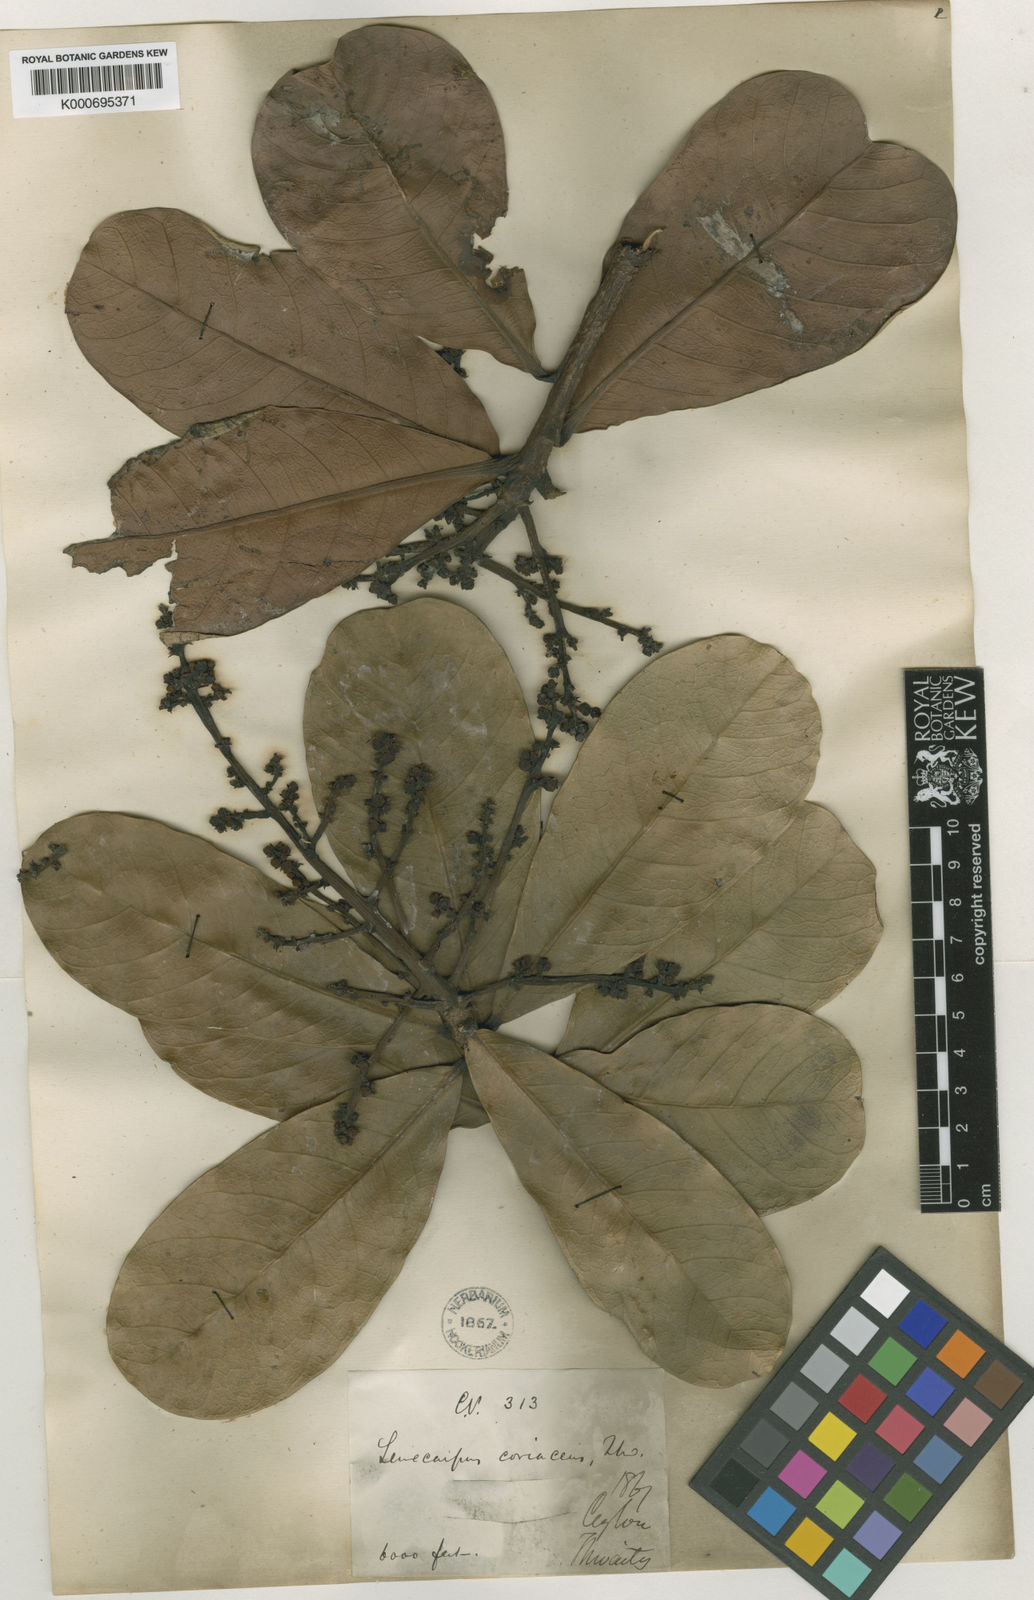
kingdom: Plantae
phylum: Tracheophyta
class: Magnoliopsida
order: Sapindales
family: Anacardiaceae
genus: Semecarpus
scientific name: Semecarpus coriaceus
